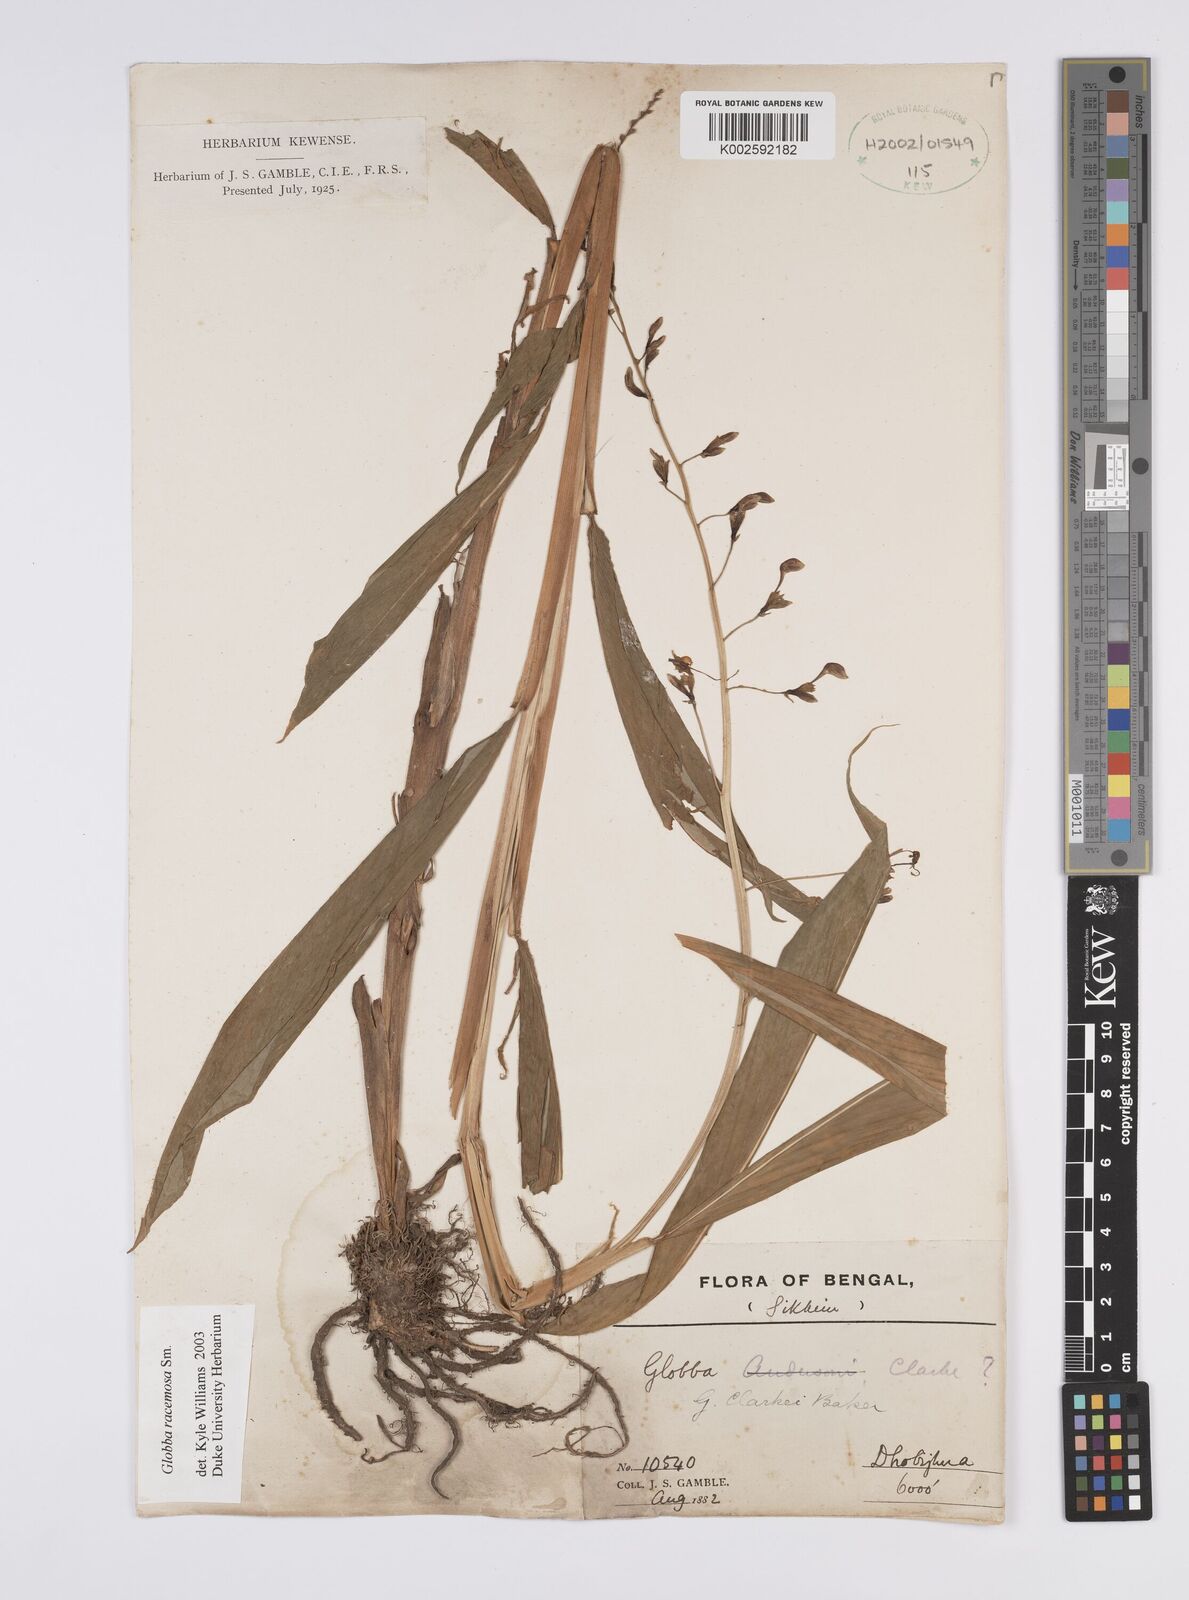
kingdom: Plantae
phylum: Tracheophyta
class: Liliopsida
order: Zingiberales
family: Zingiberaceae
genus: Globba
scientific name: Globba racemosa
